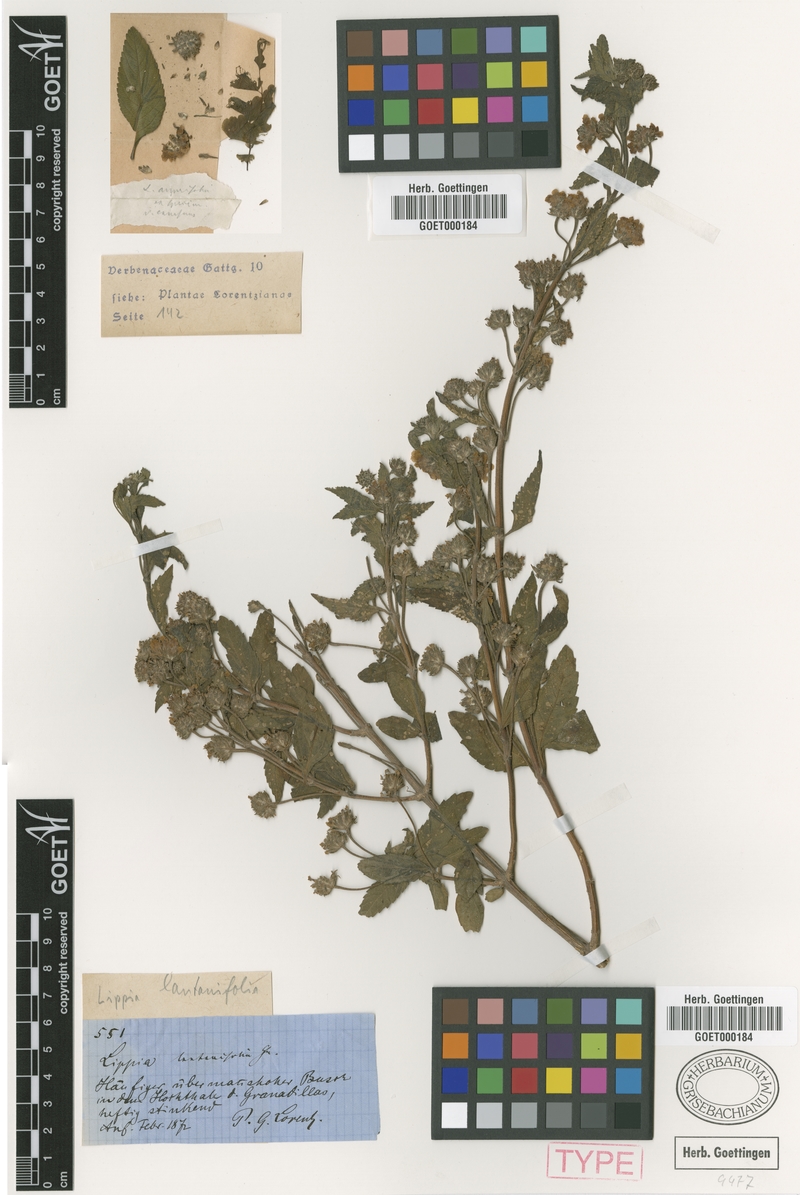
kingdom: Plantae
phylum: Tracheophyta
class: Magnoliopsida
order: Lamiales
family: Verbenaceae
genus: Lippia
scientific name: Lippia brachypoda
